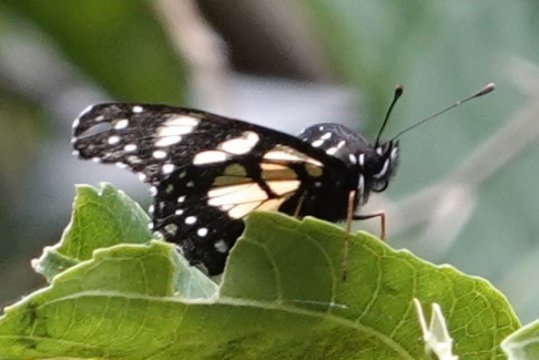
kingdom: Animalia
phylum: Arthropoda
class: Insecta
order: Lepidoptera
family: Nymphalidae
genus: Chlosyne
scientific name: Chlosyne narva
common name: Narva Checkerspot
